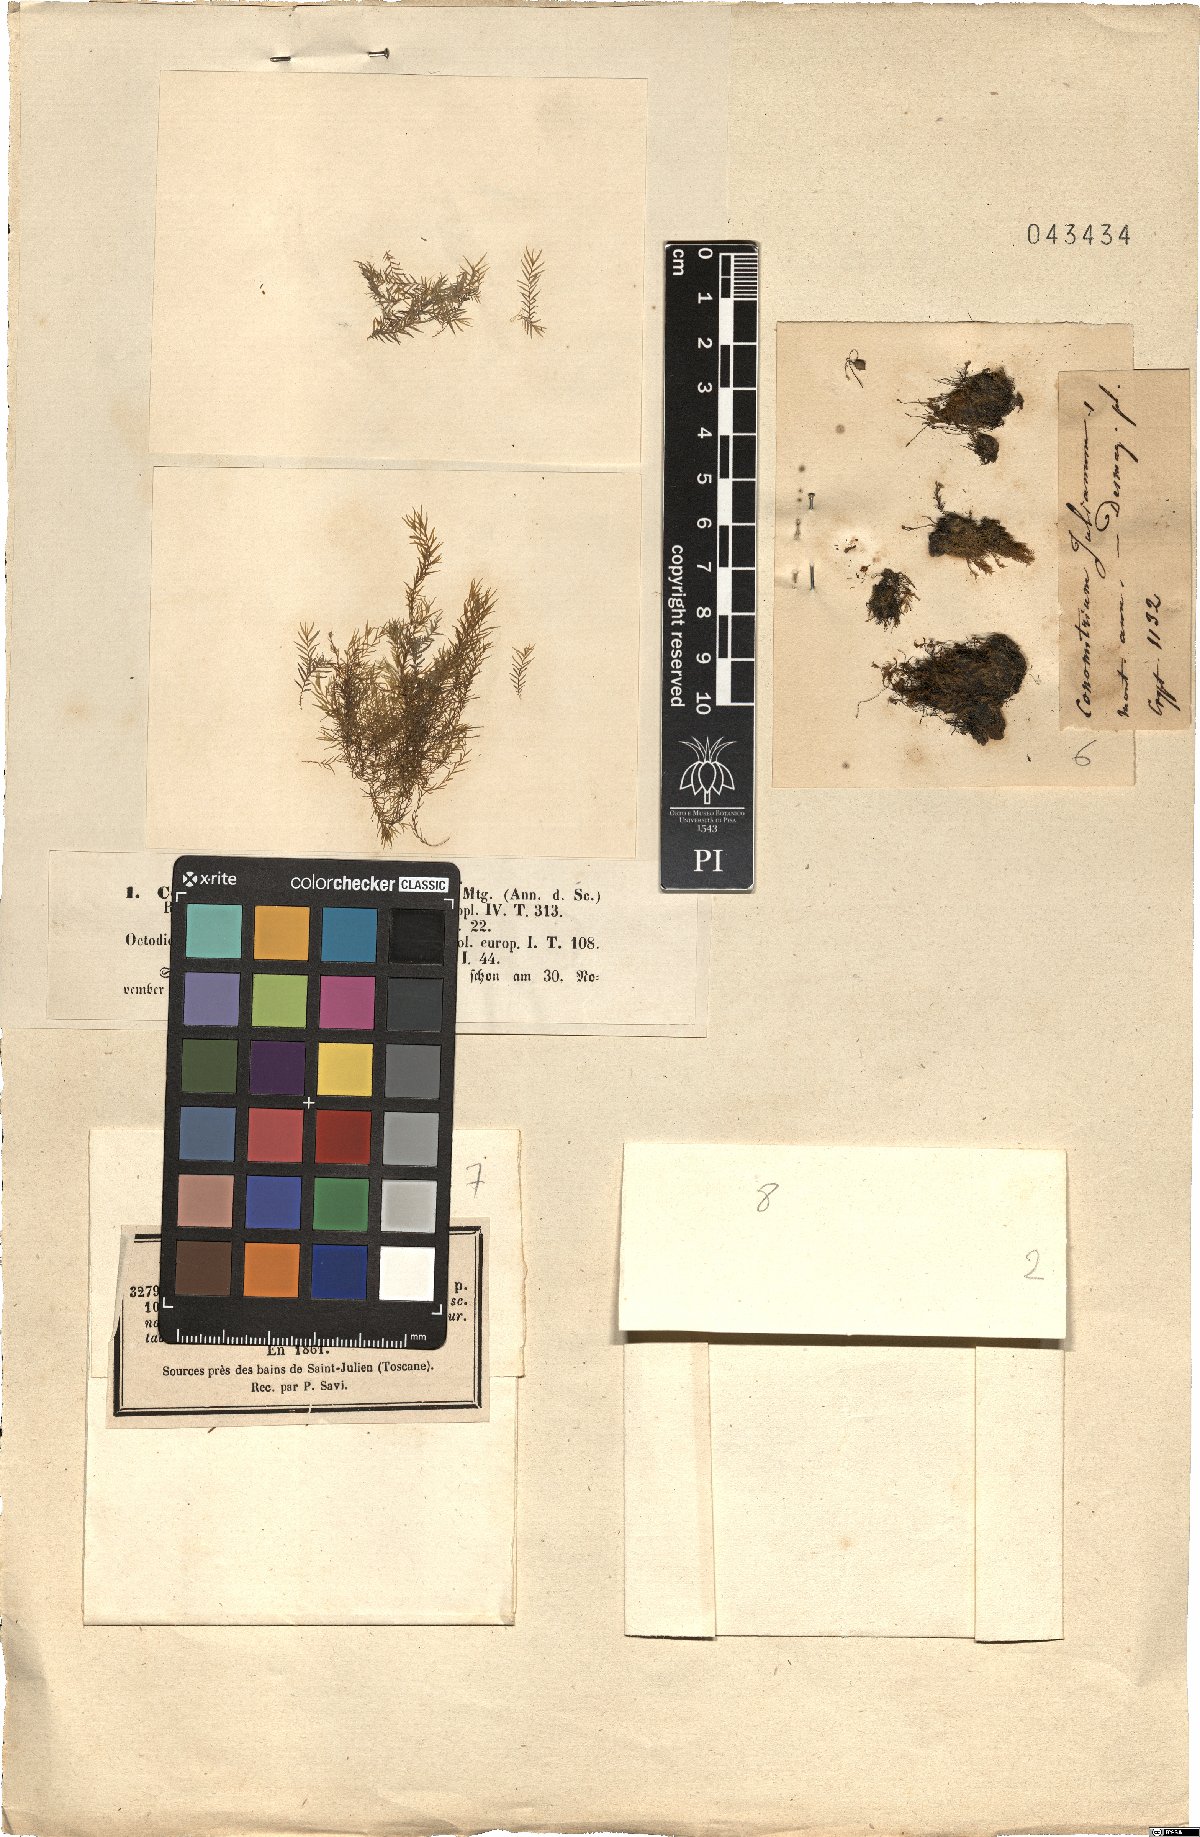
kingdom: Plantae
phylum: Bryophyta
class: Bryopsida
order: Dicranales
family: Fissidentaceae
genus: Fissidens
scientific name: Fissidens fontanus
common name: Fountain pocket-moss
